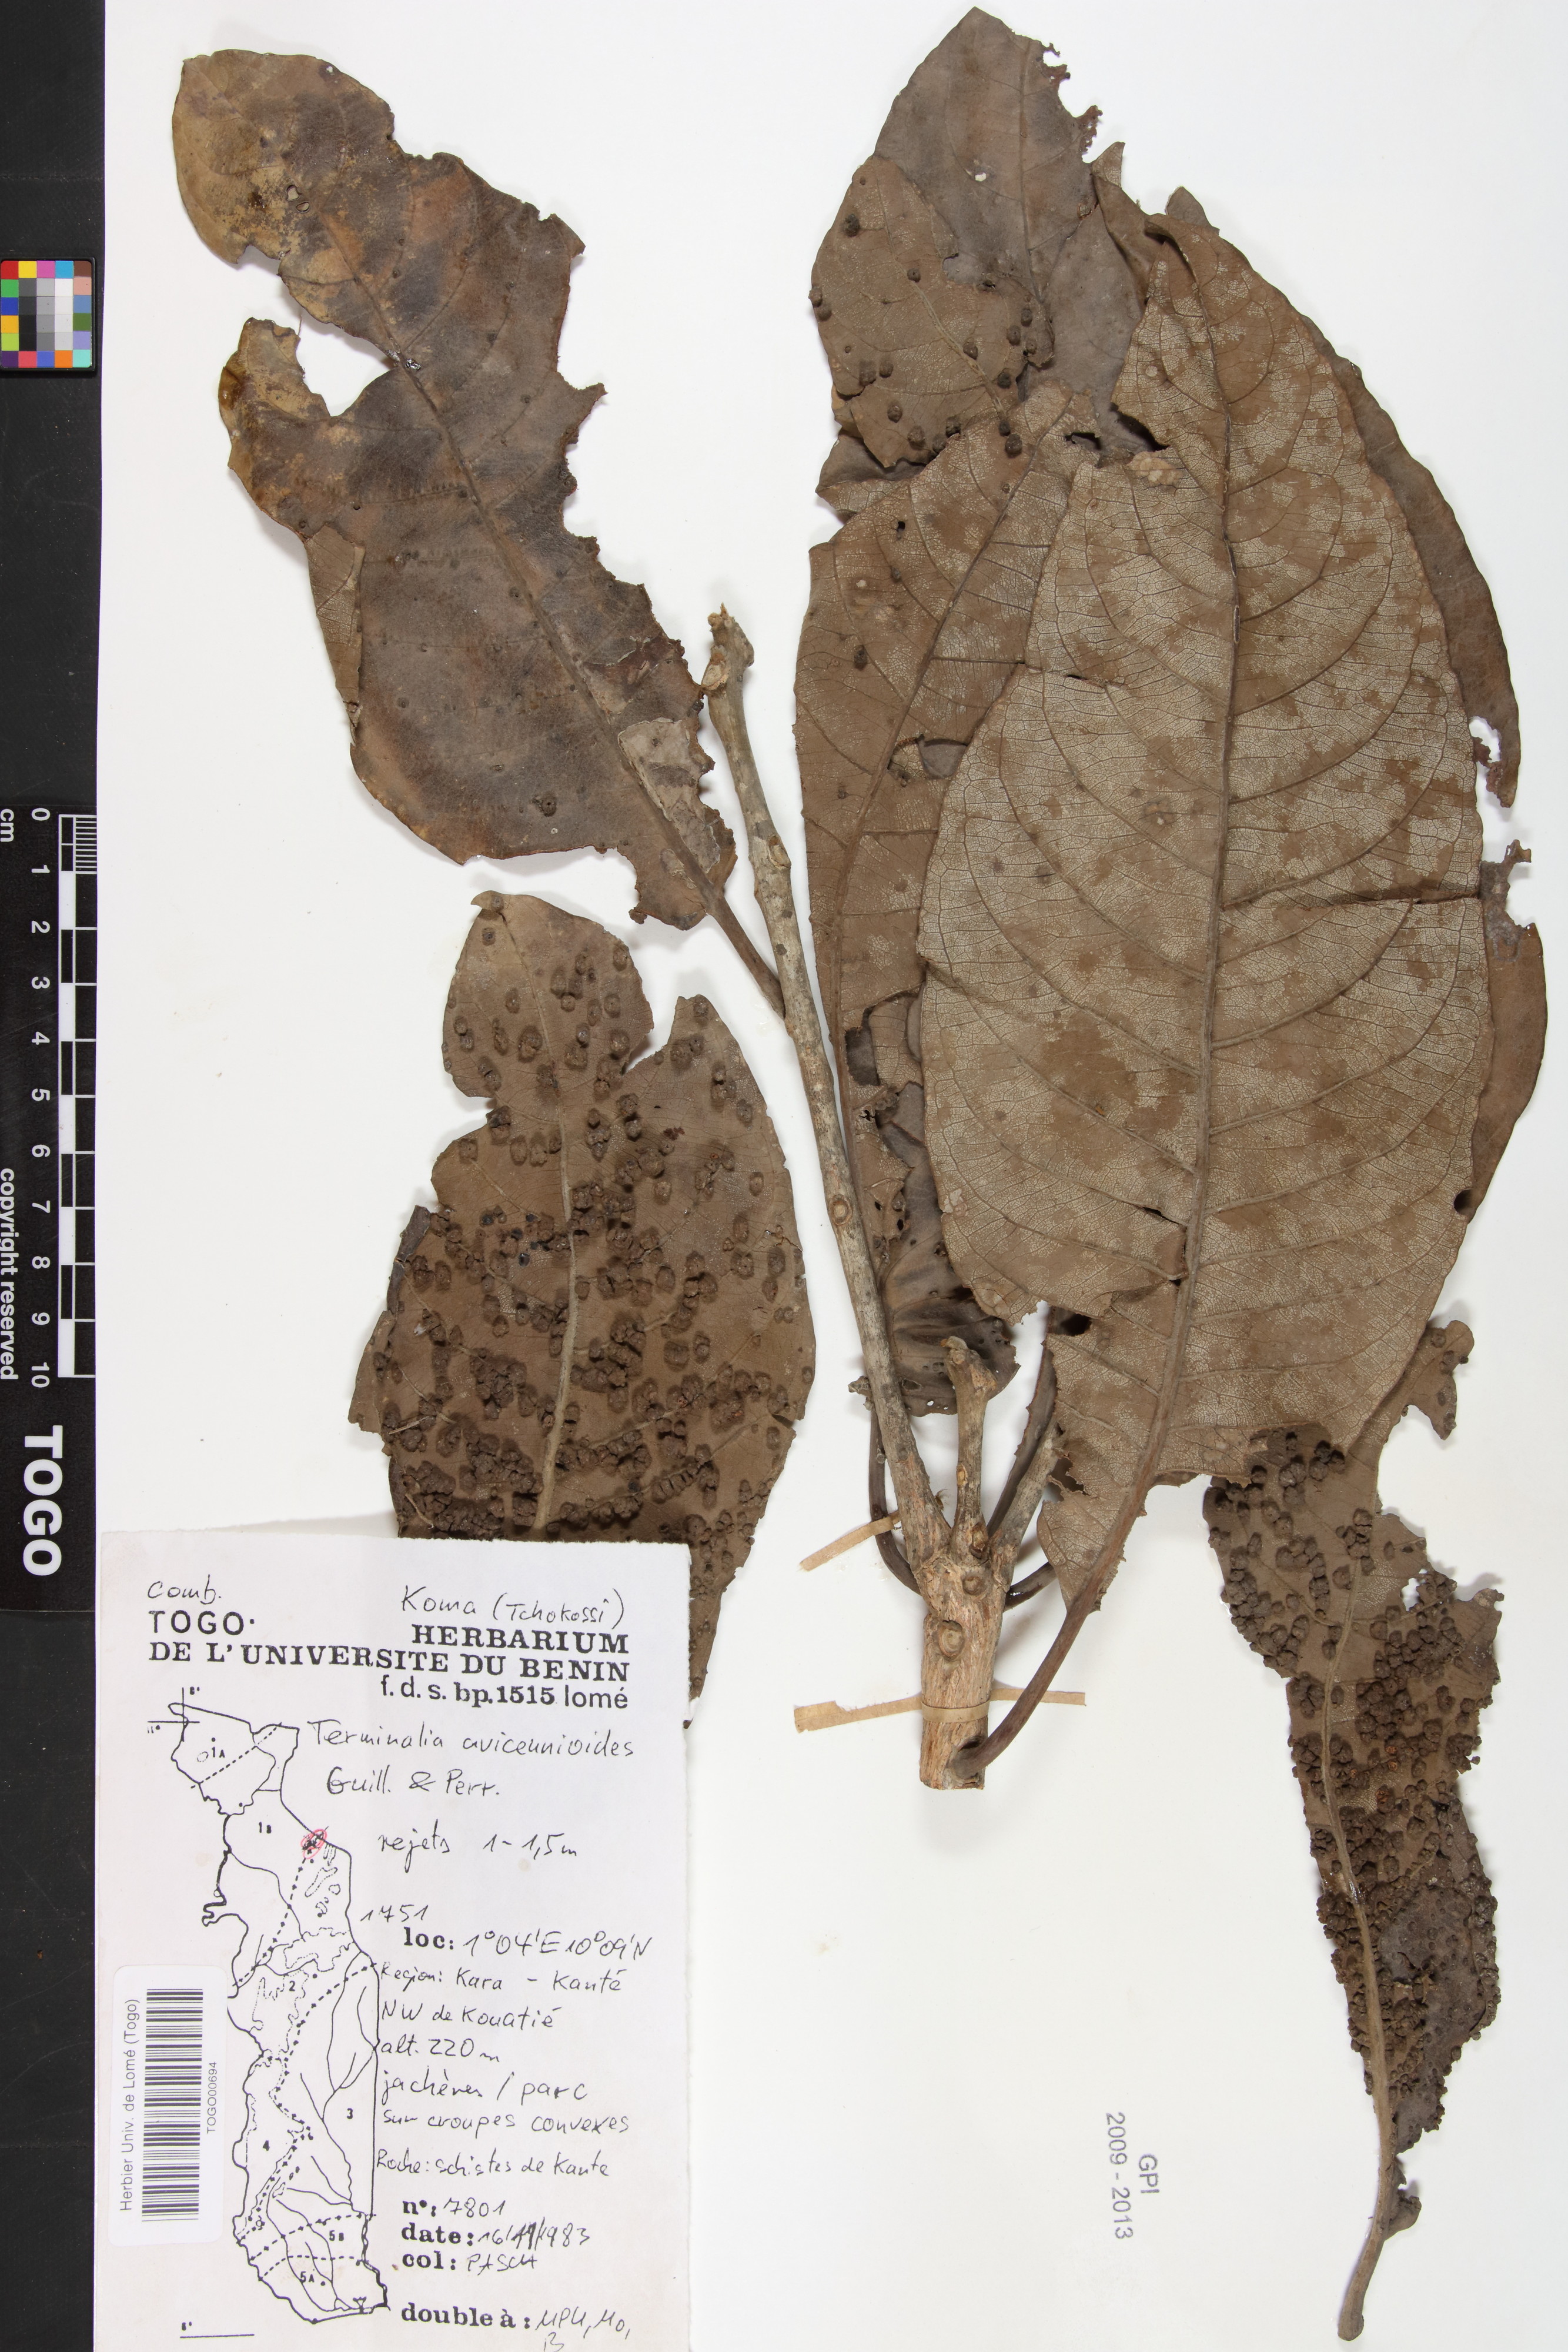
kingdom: Plantae
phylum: Tracheophyta
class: Magnoliopsida
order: Myrtales
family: Combretaceae
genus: Terminalia
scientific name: Terminalia avicennioides
